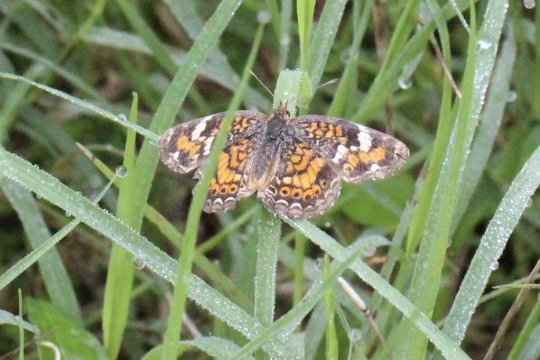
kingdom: Animalia
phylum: Arthropoda
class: Insecta
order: Lepidoptera
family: Nymphalidae
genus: Phyciodes
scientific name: Phyciodes phaon
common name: Phaon Crescent
